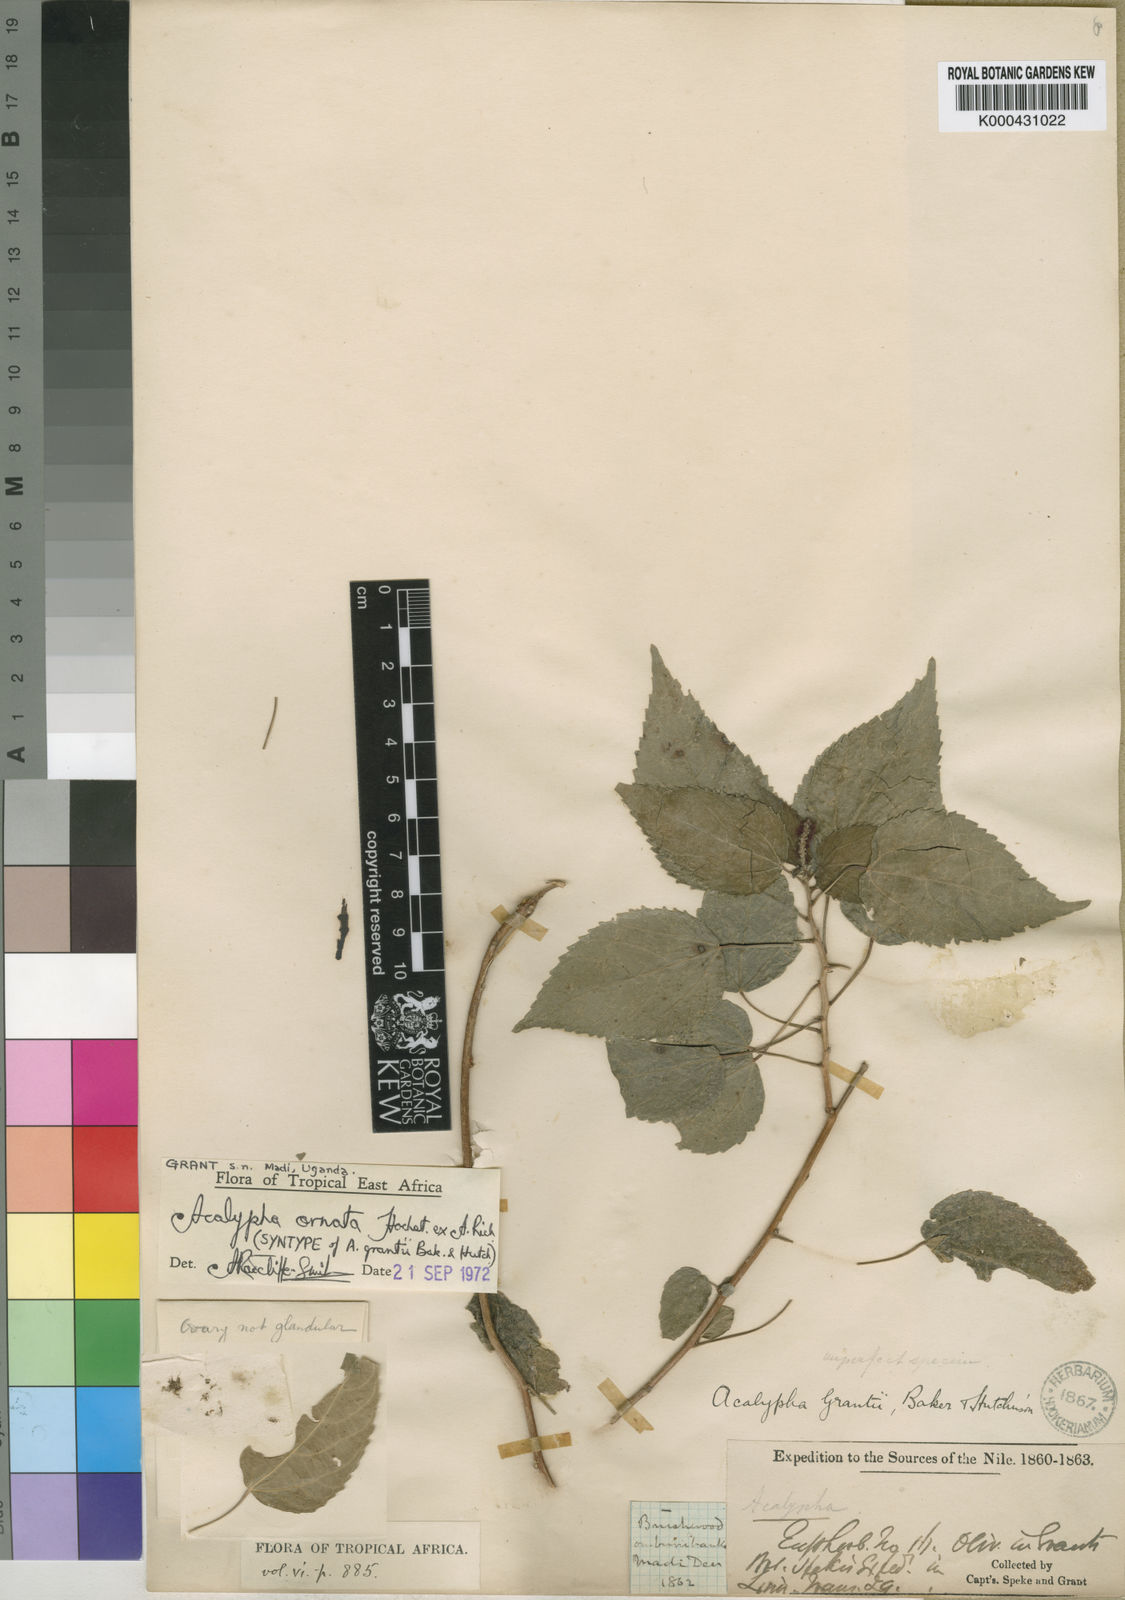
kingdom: Plantae
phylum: Tracheophyta
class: Magnoliopsida
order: Malpighiales
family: Euphorbiaceae
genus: Acalypha
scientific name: Acalypha ornata
